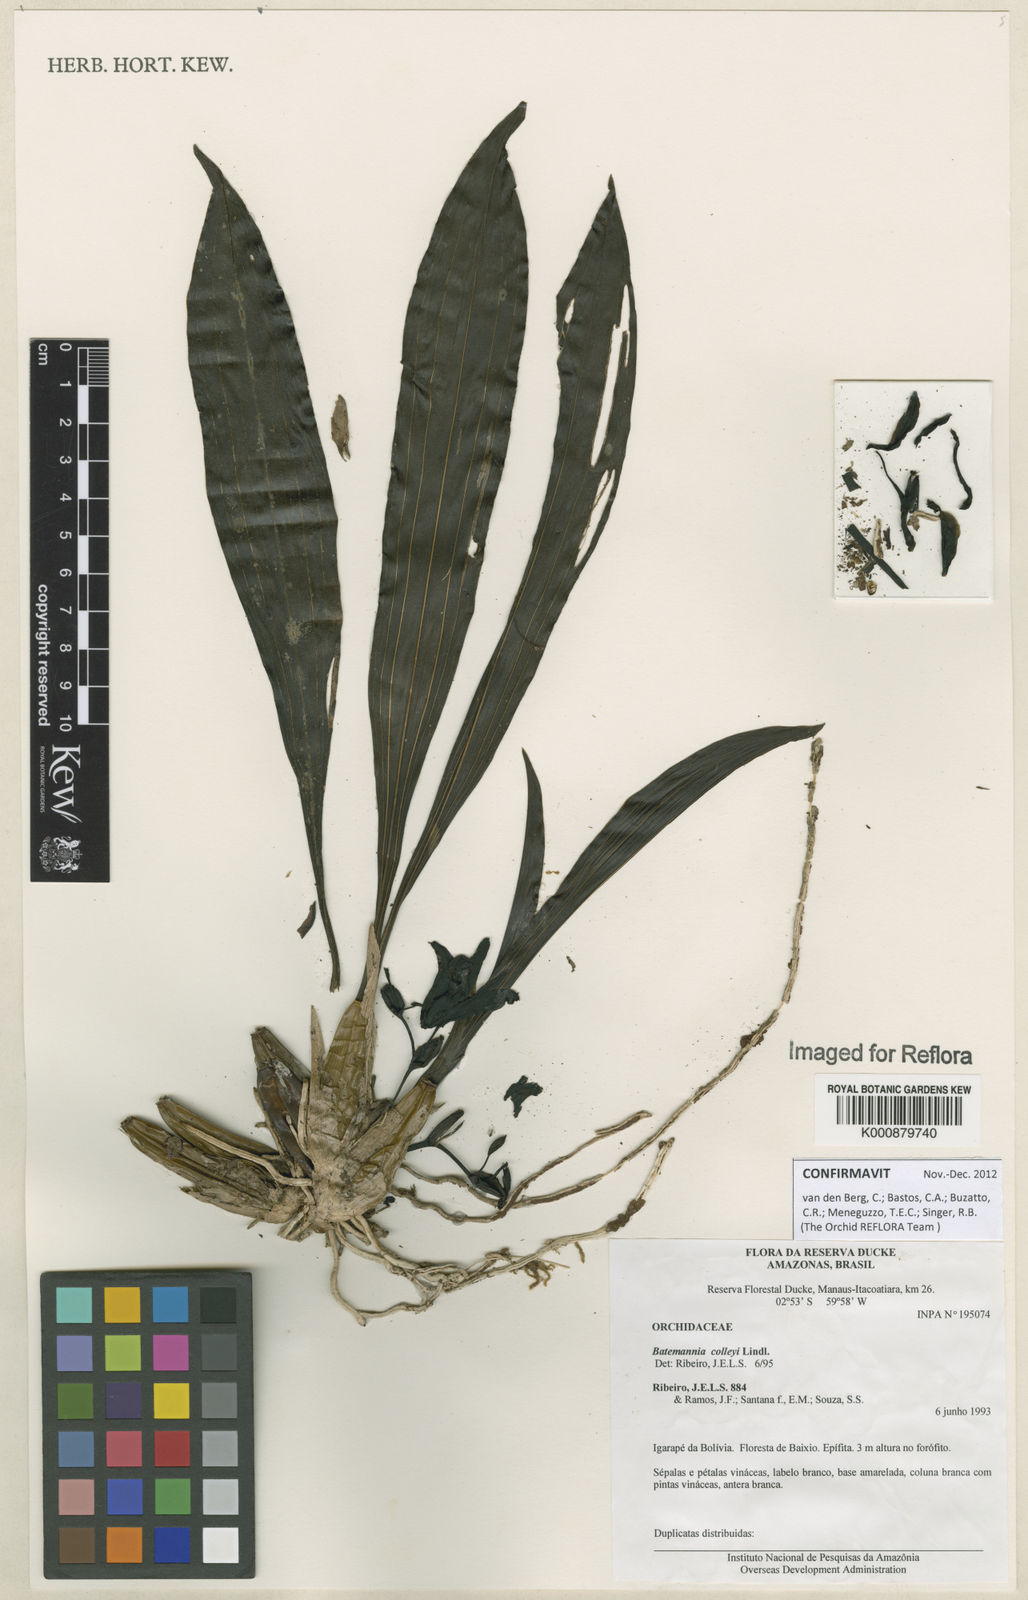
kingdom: Plantae
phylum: Tracheophyta
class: Liliopsida
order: Asparagales
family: Orchidaceae
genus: Batemannia
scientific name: Batemannia colleyi
